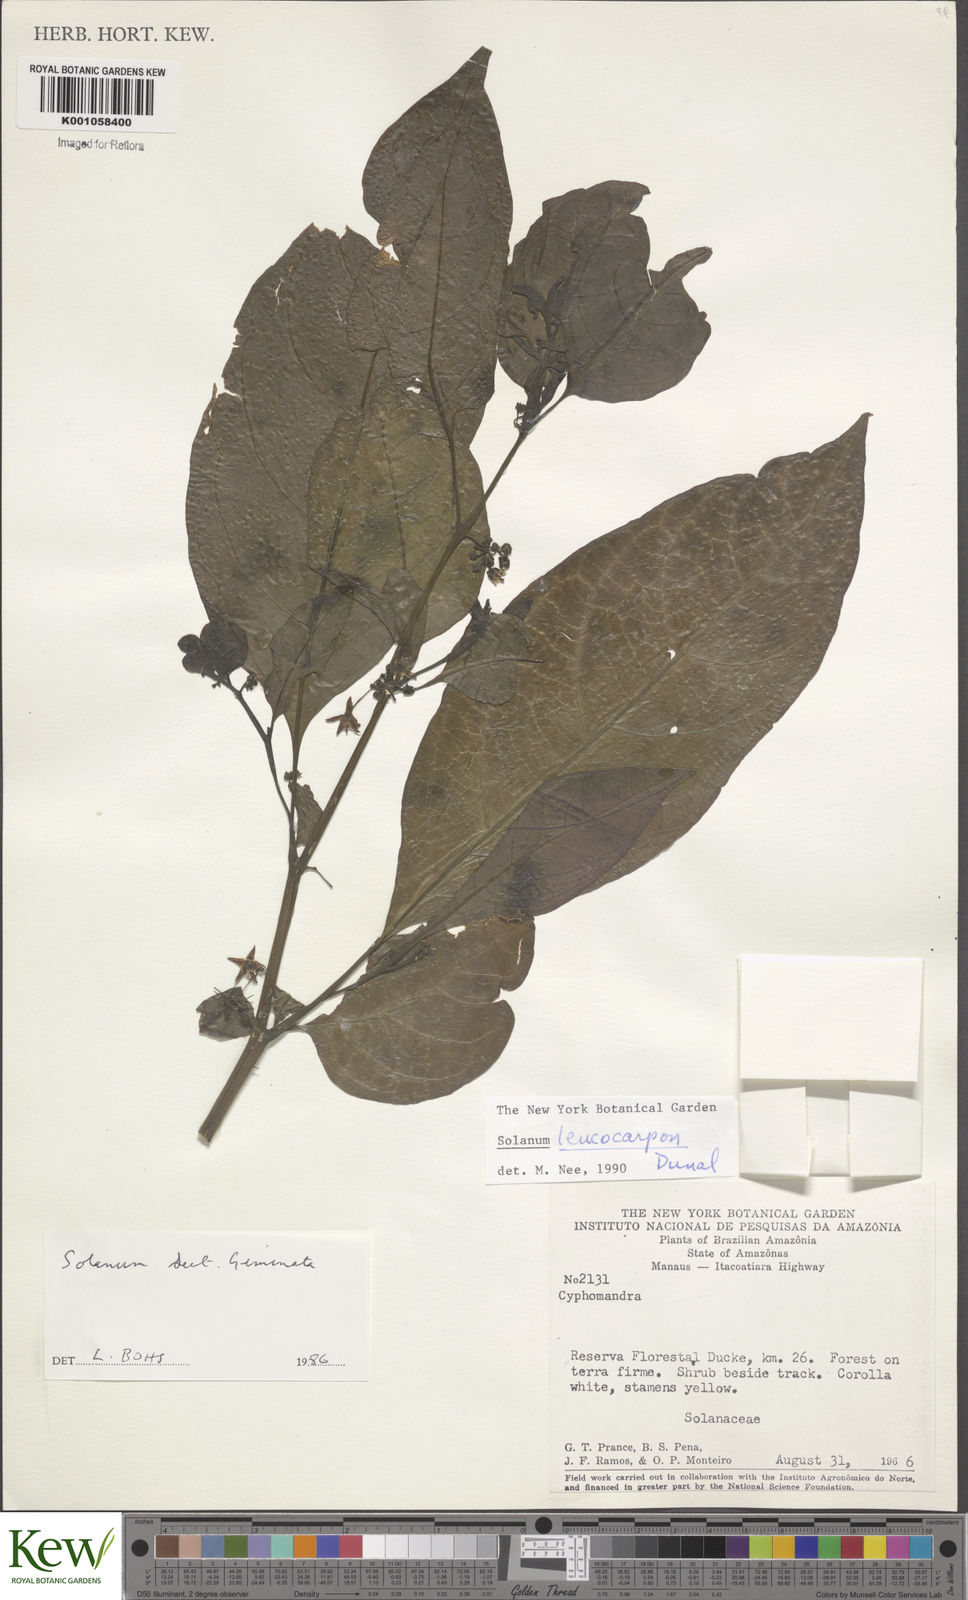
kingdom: Plantae
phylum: Tracheophyta
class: Magnoliopsida
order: Solanales
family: Solanaceae
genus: Solanum
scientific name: Solanum leucocarpon
